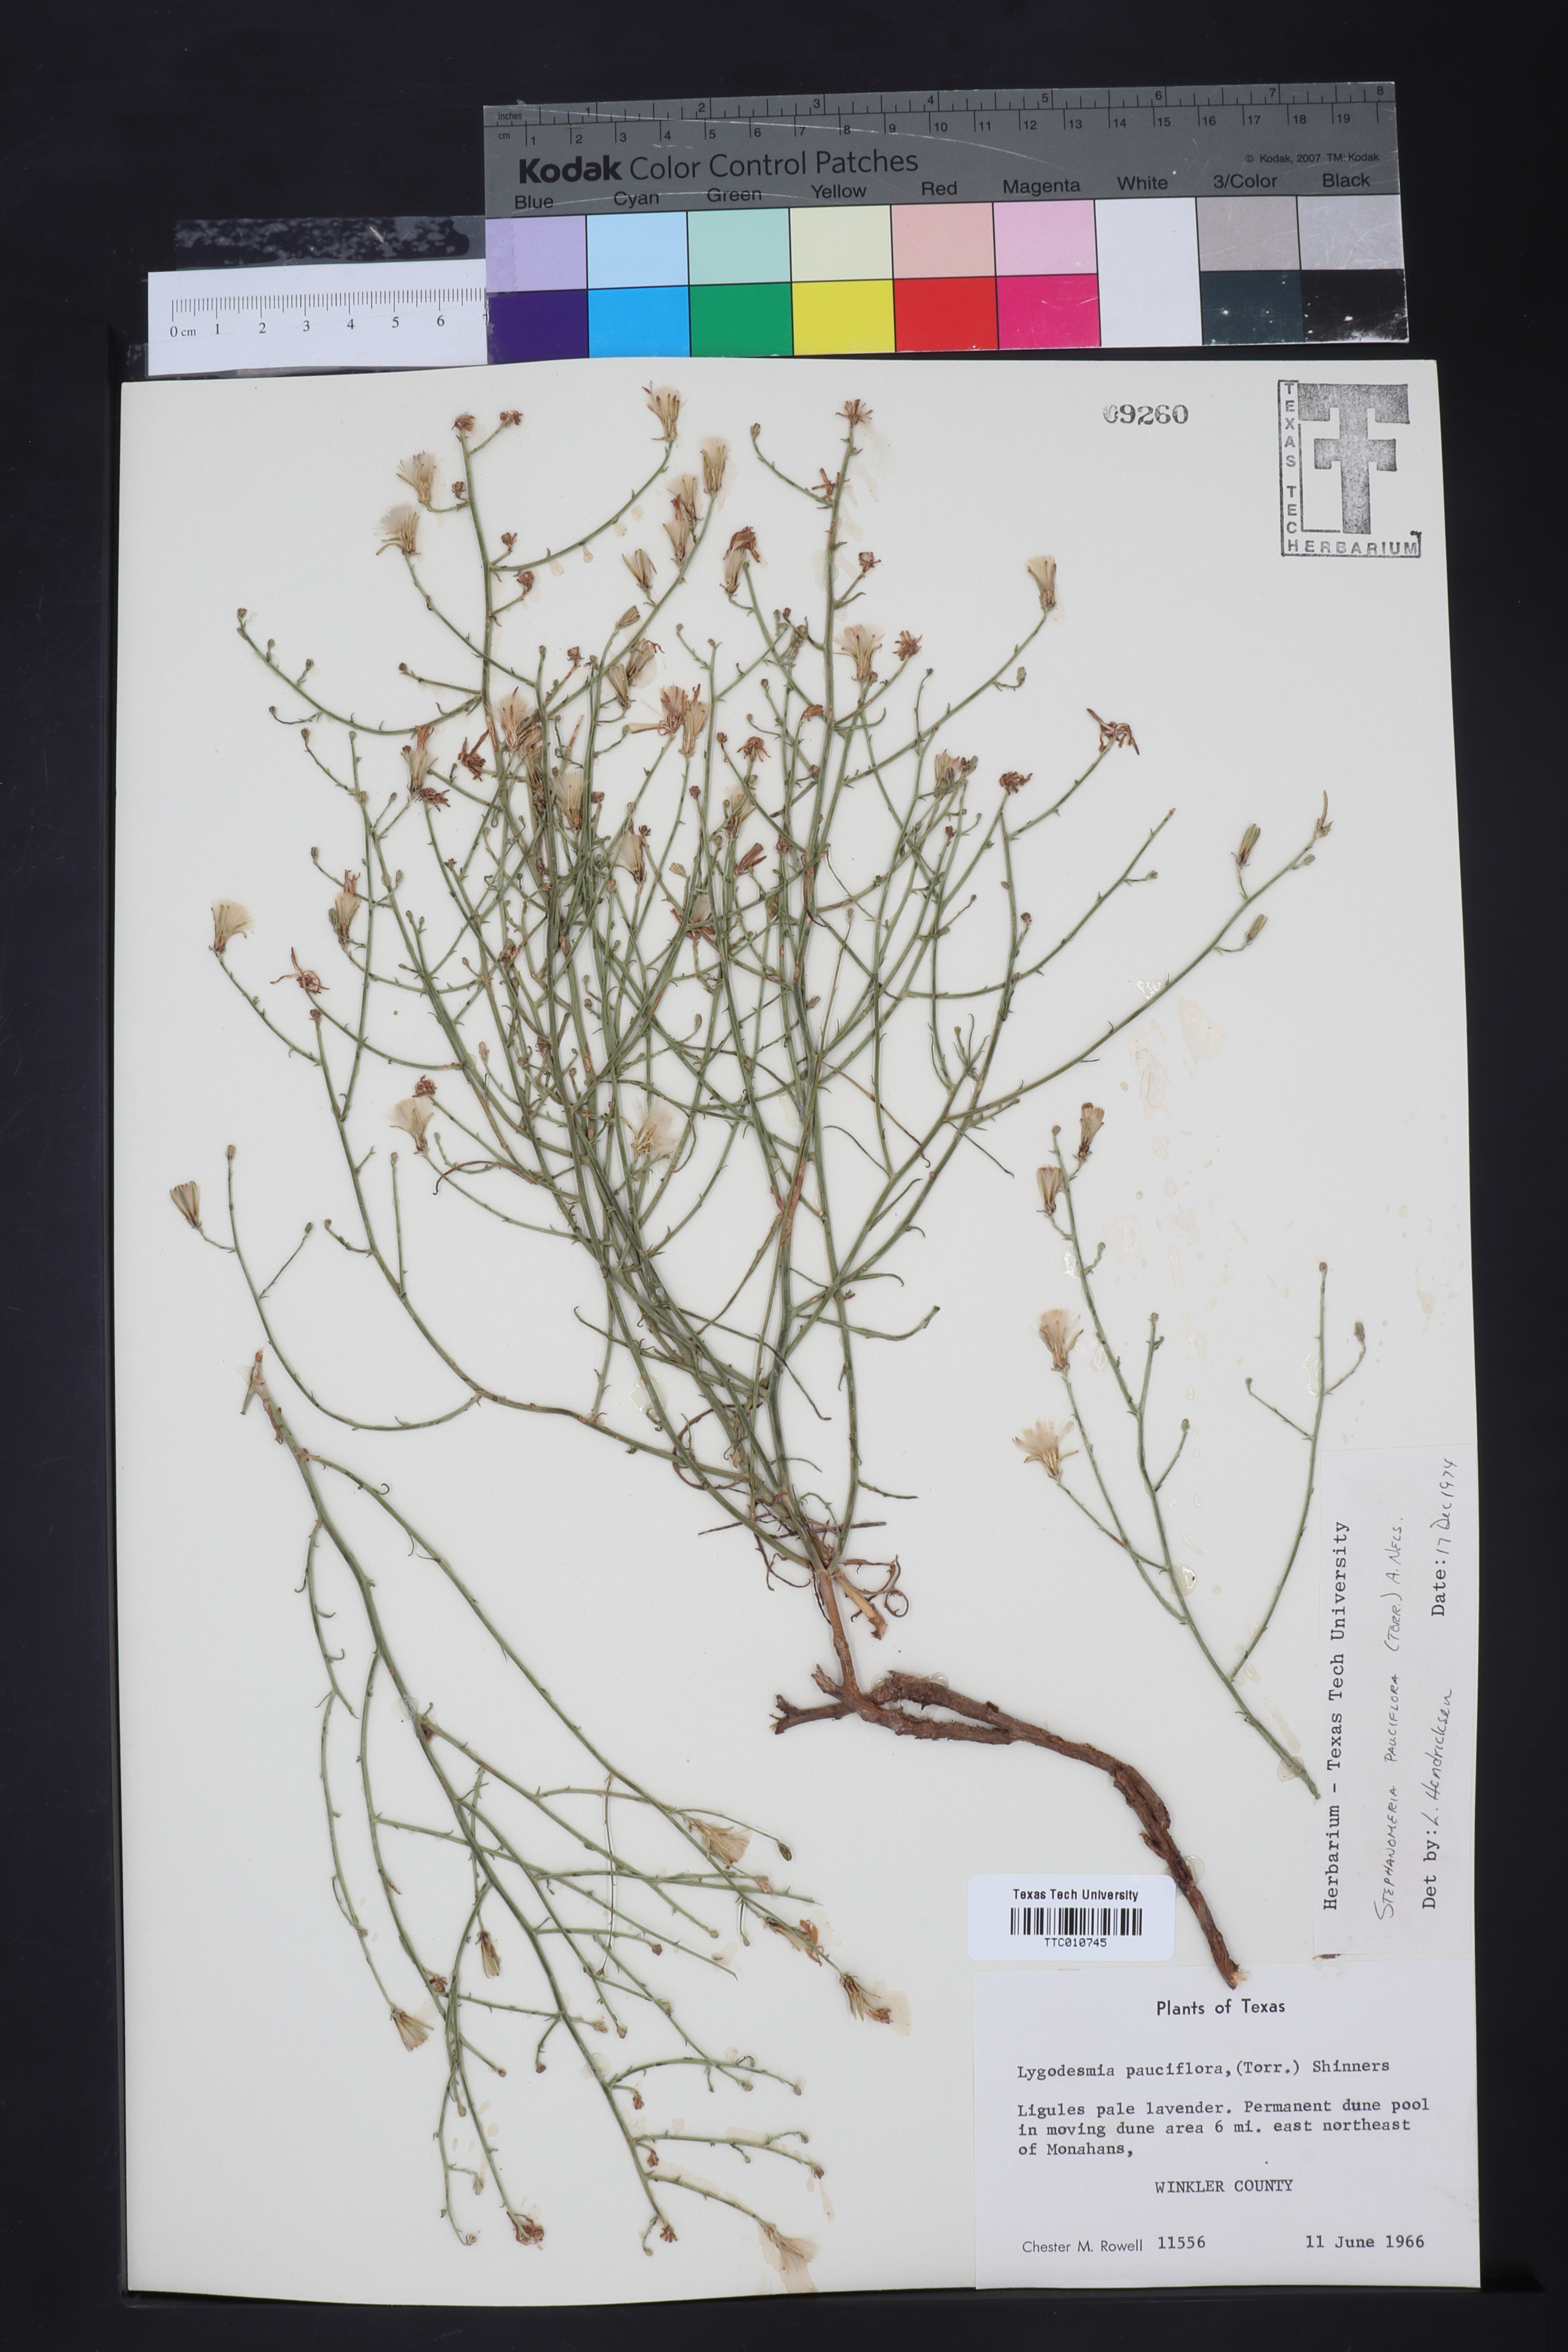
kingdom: Plantae
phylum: Tracheophyta
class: Magnoliopsida
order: Asterales
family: Asteraceae
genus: Stephanomeria
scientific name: Stephanomeria pauciflora
